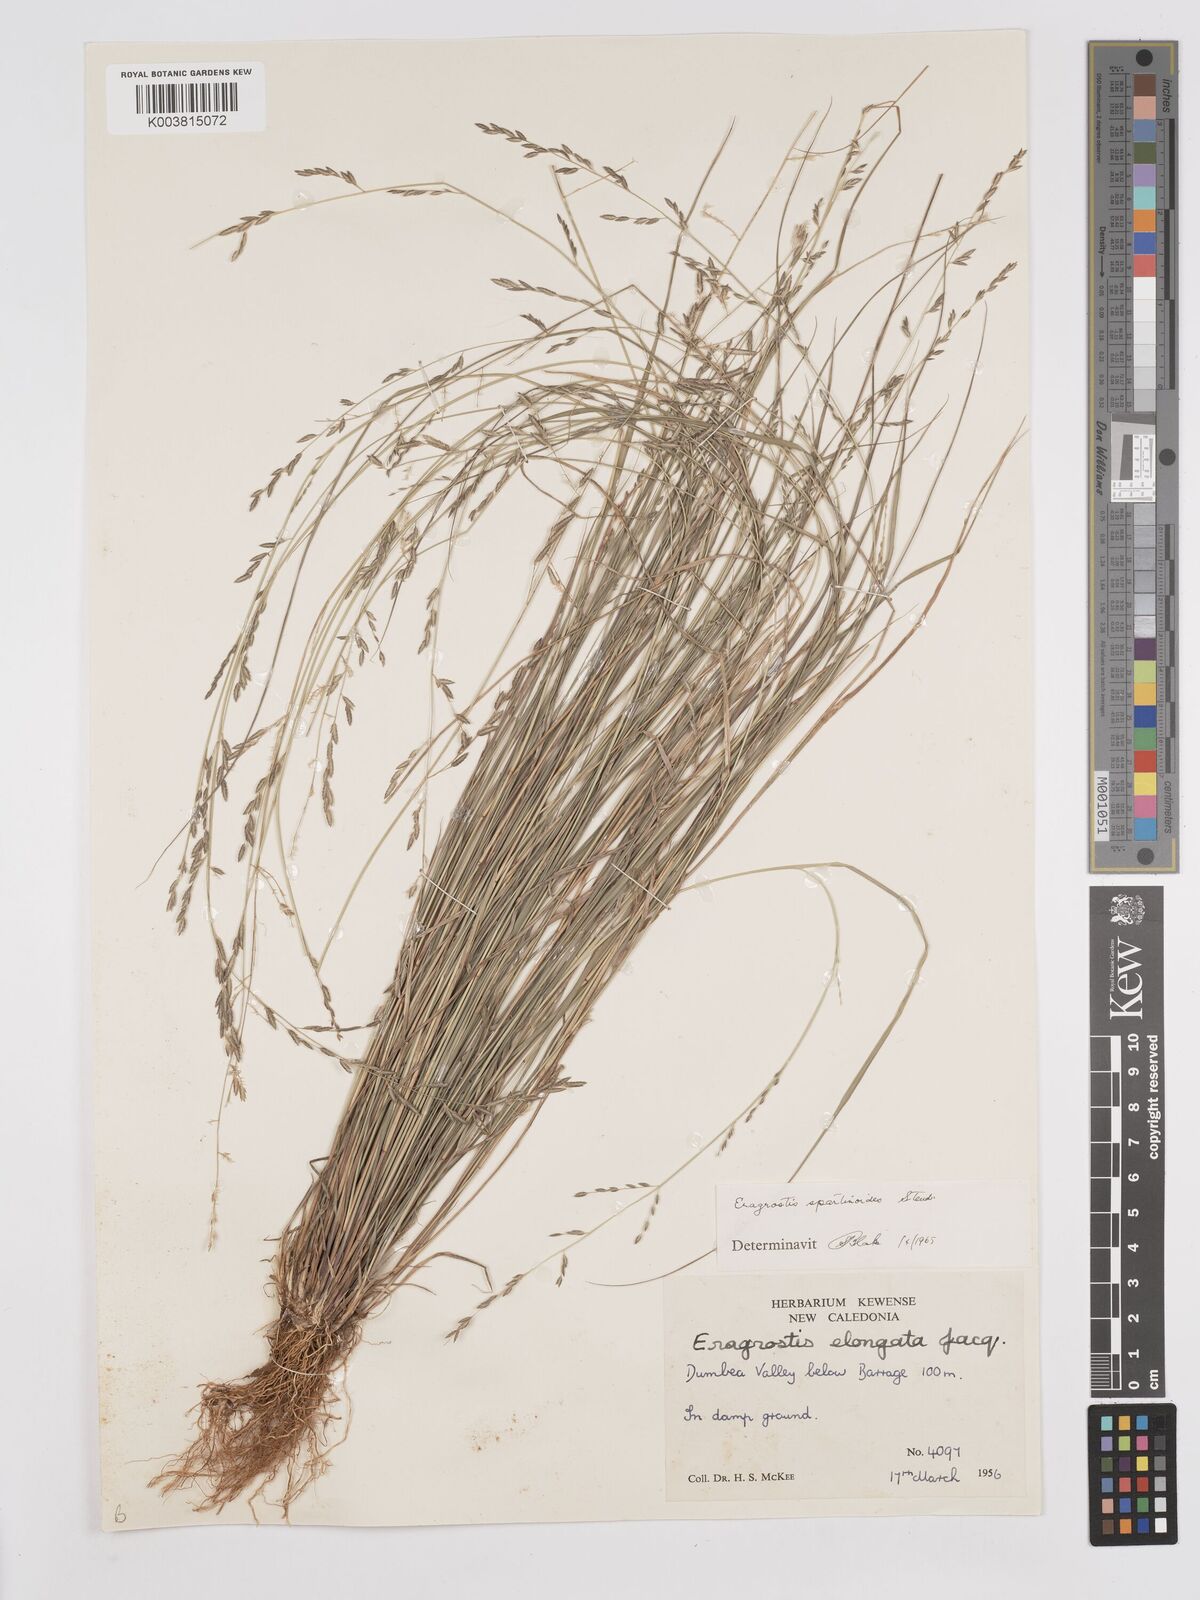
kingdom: Plantae
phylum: Tracheophyta
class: Liliopsida
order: Poales
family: Poaceae
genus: Eragrostis
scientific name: Eragrostis brownii
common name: Lovegrass
